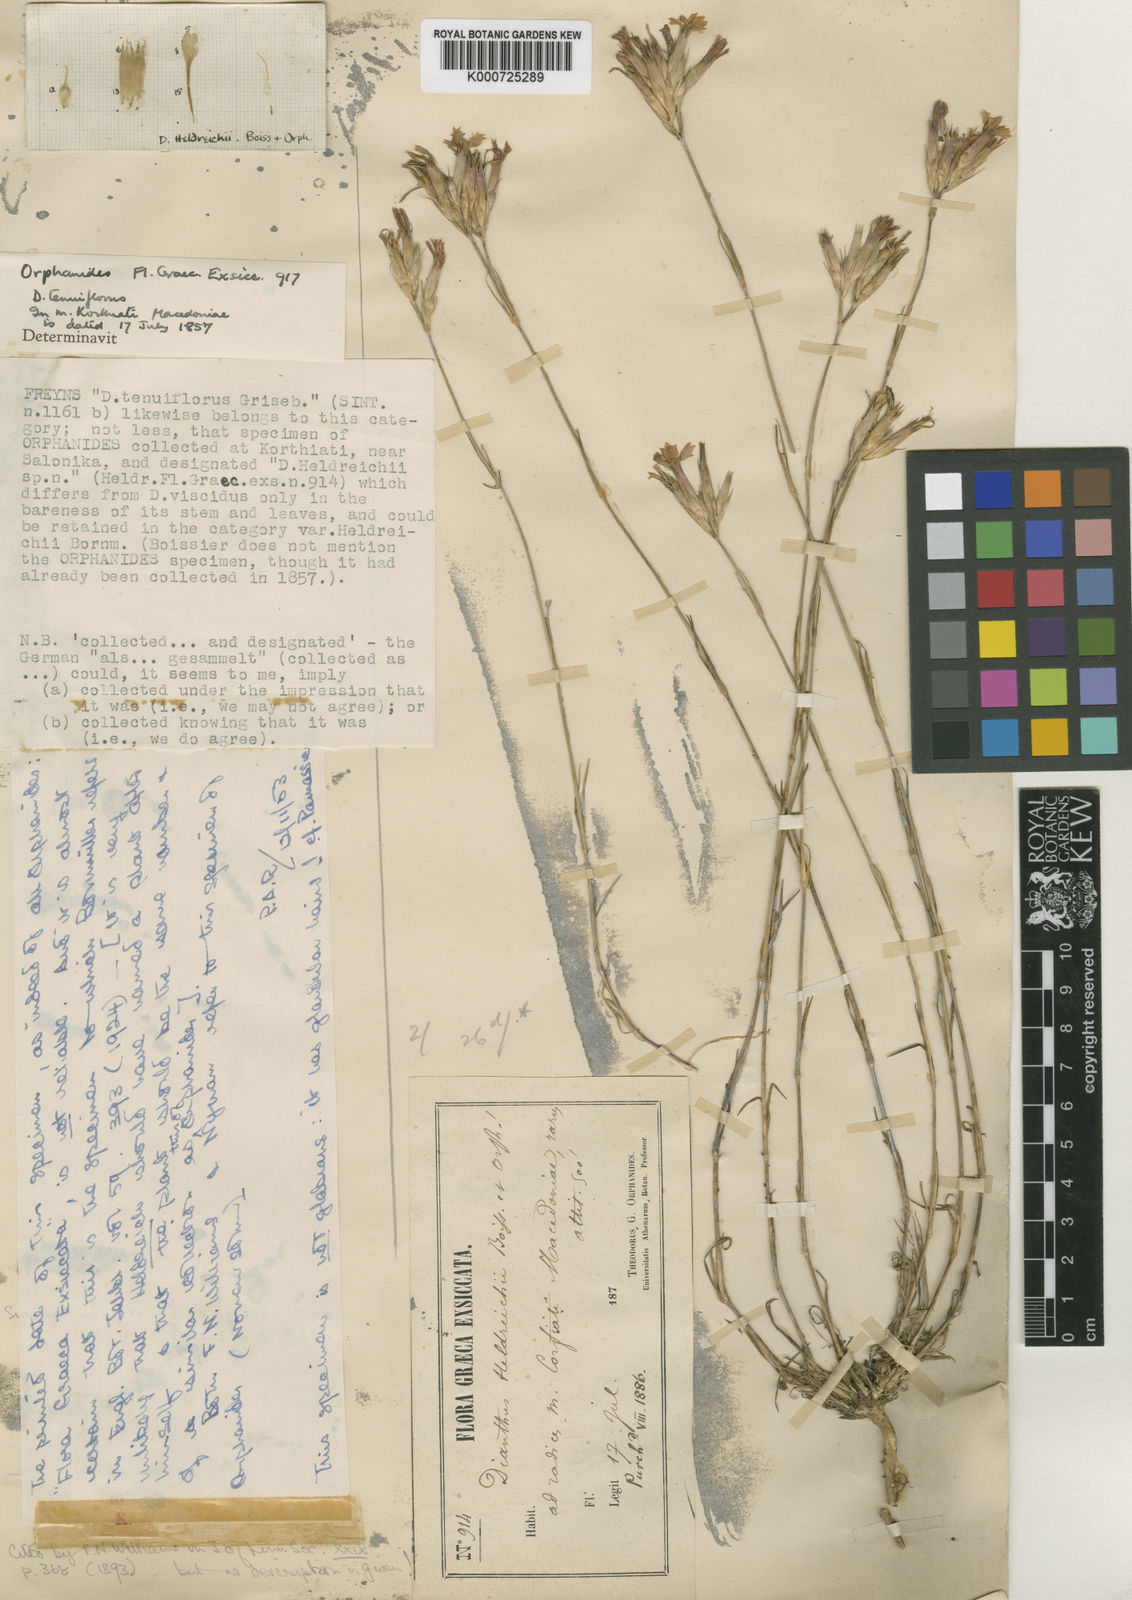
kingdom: Plantae
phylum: Tracheophyta
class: Magnoliopsida
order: Caryophyllales
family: Caryophyllaceae
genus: Dianthus
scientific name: Dianthus viscidus
